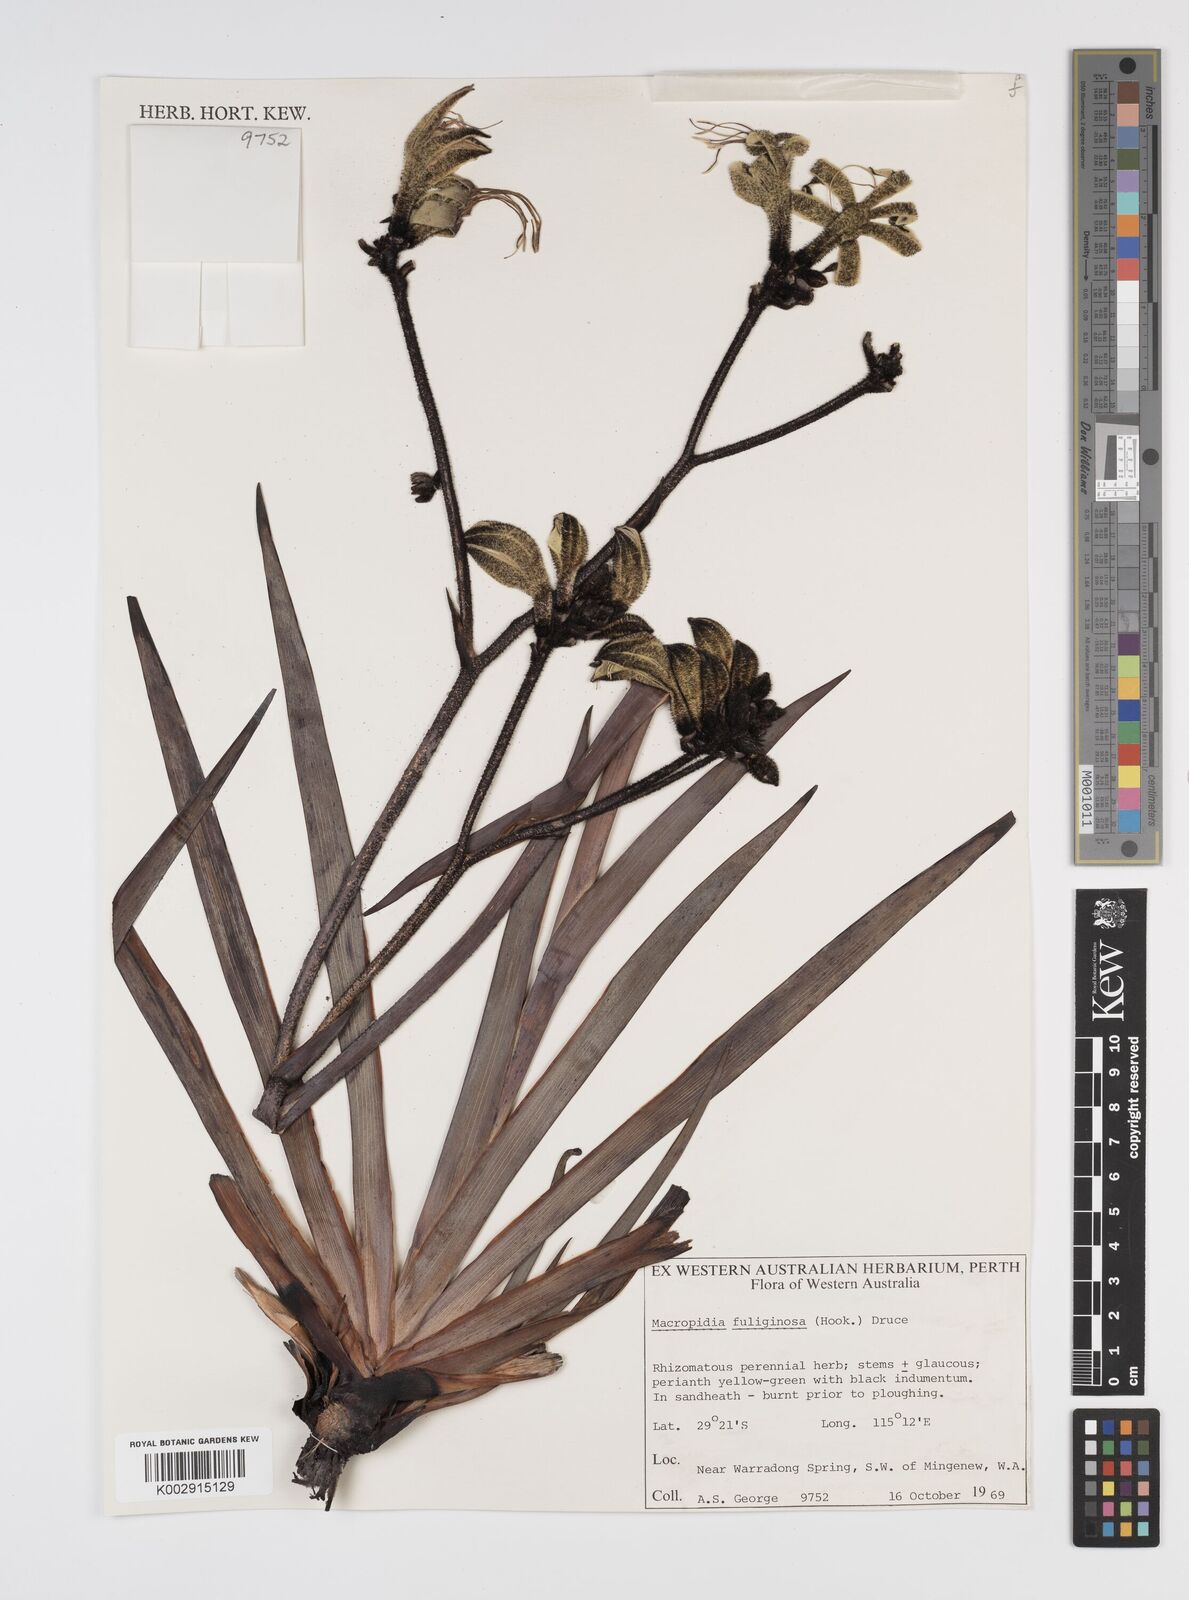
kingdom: Plantae
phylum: Tracheophyta
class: Liliopsida
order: Commelinales
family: Haemodoraceae
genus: Macropidia
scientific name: Macropidia fuliginosa
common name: Black kangaroo-paw
